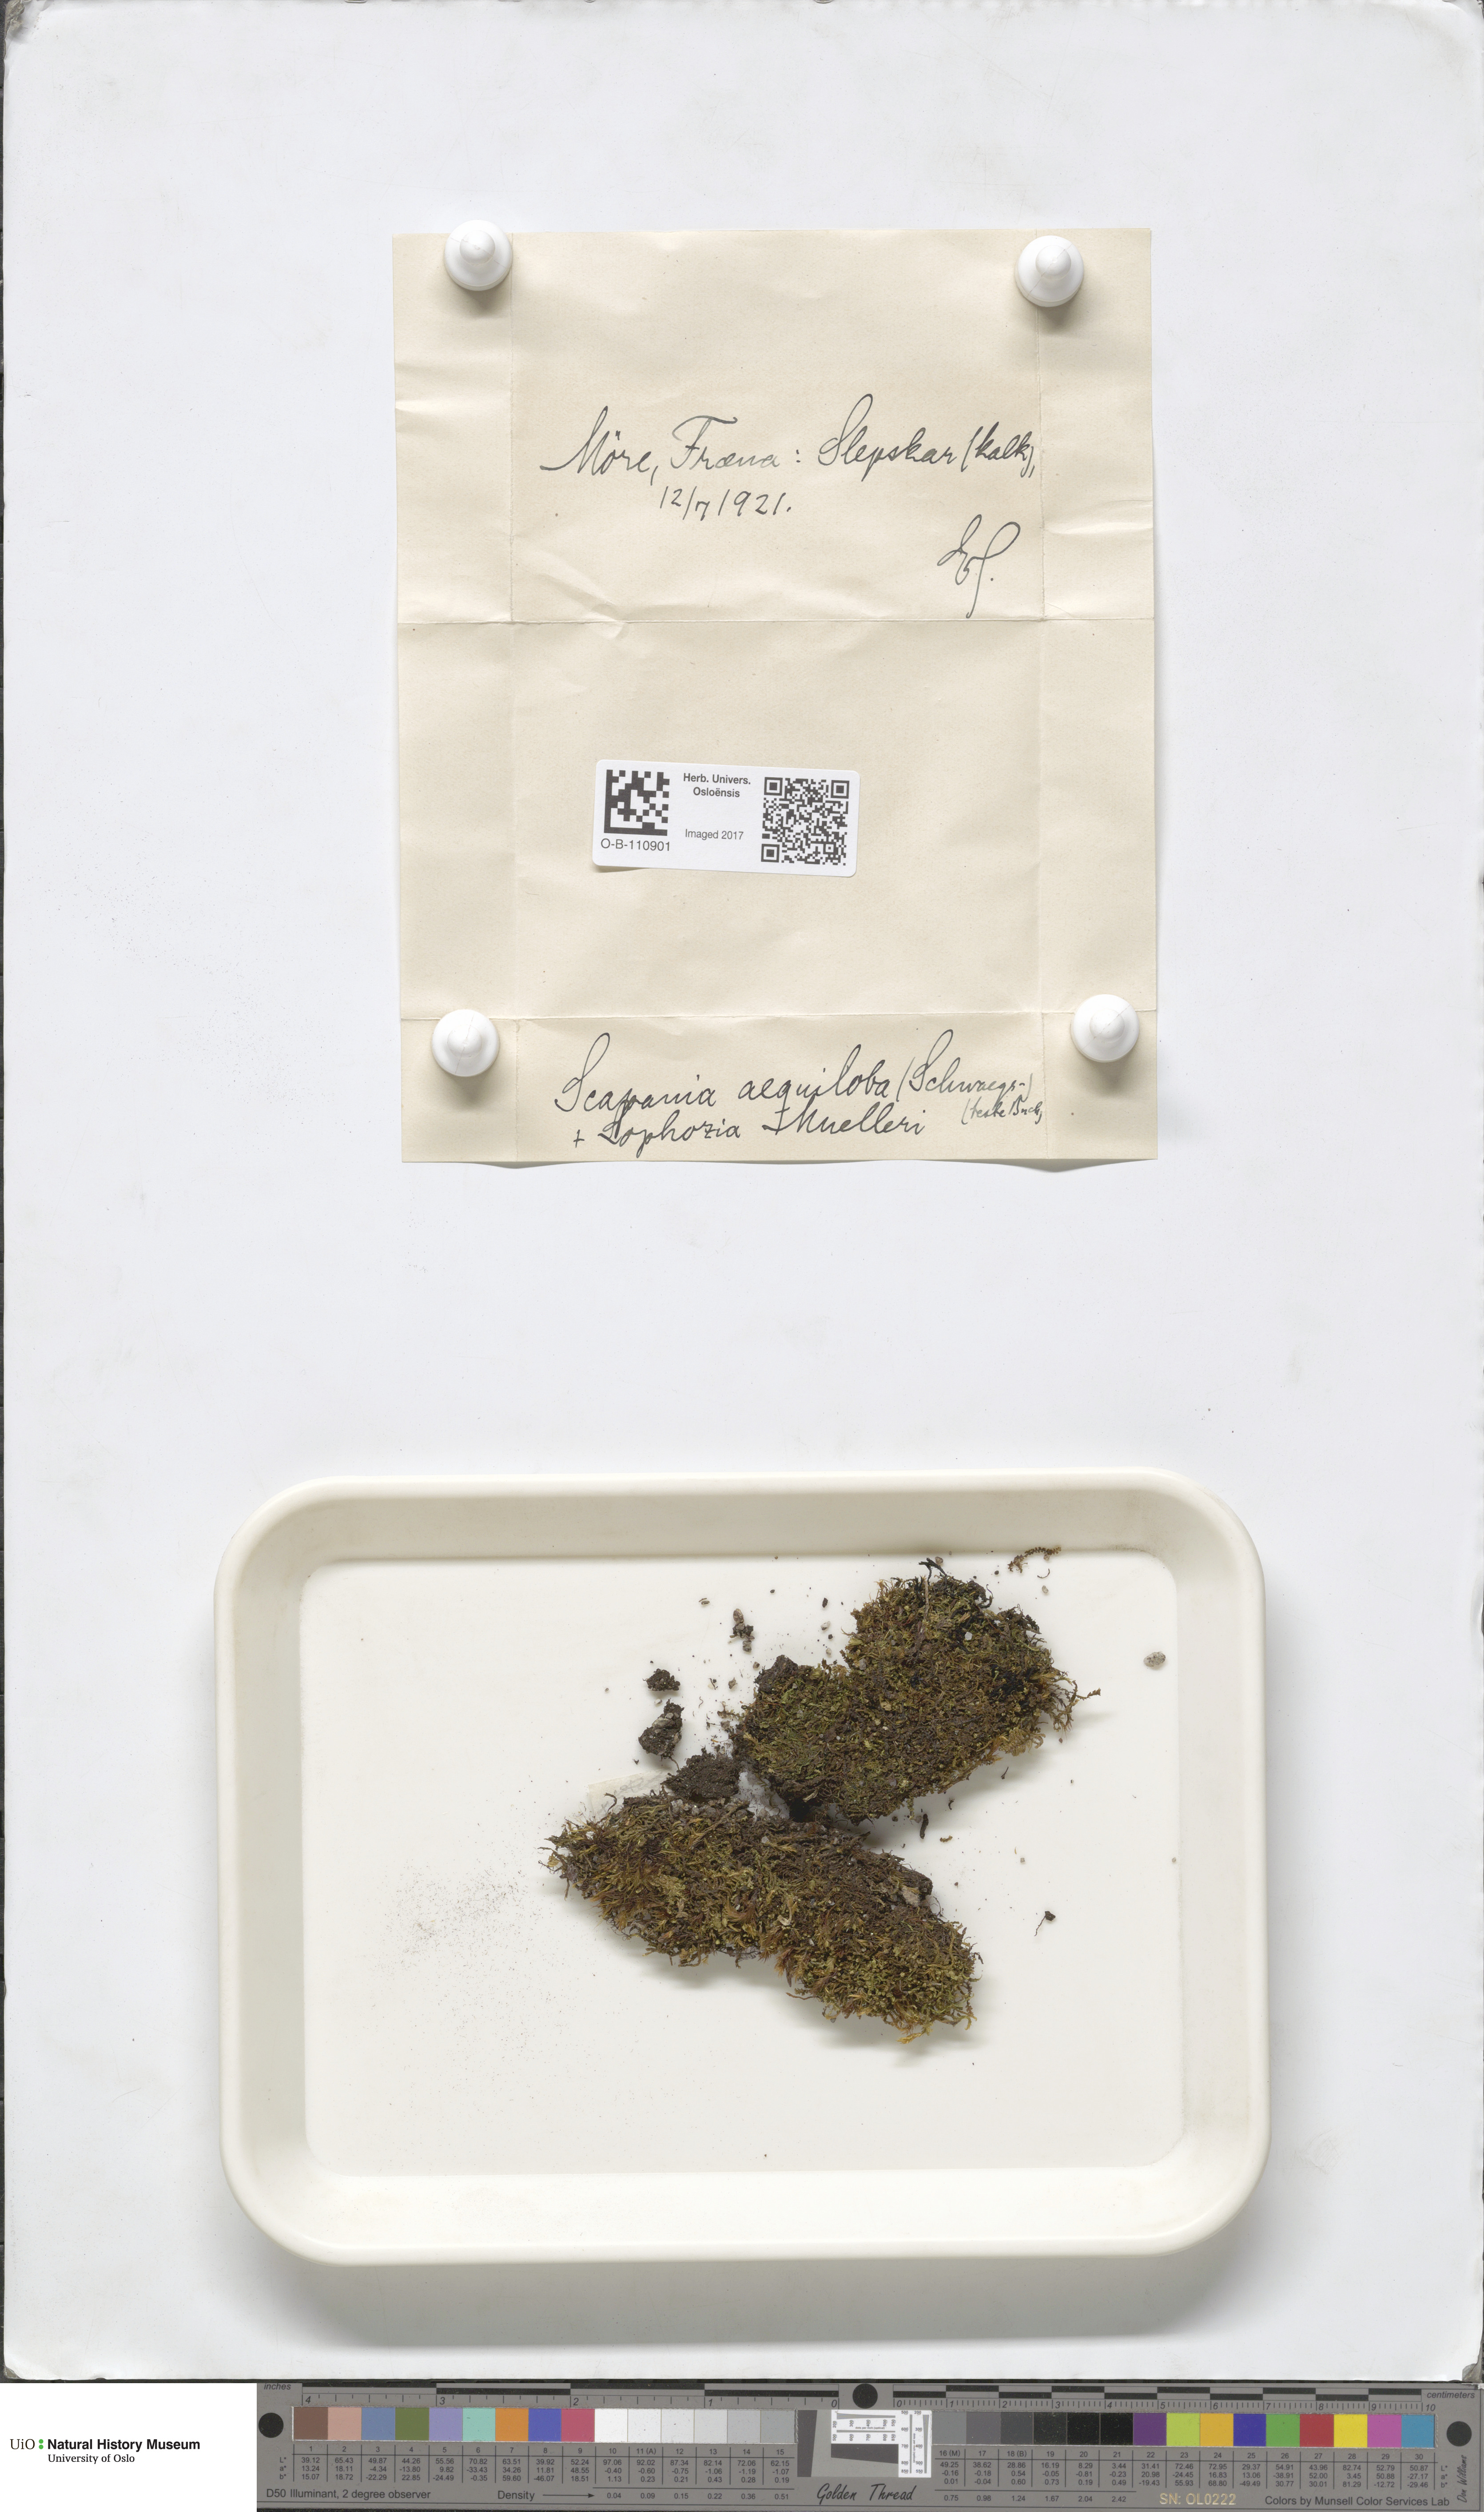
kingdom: Plantae
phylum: Marchantiophyta
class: Jungermanniopsida
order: Jungermanniales
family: Scapaniaceae
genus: Scapania
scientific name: Scapania aequiloba
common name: Lesser rough earwort
